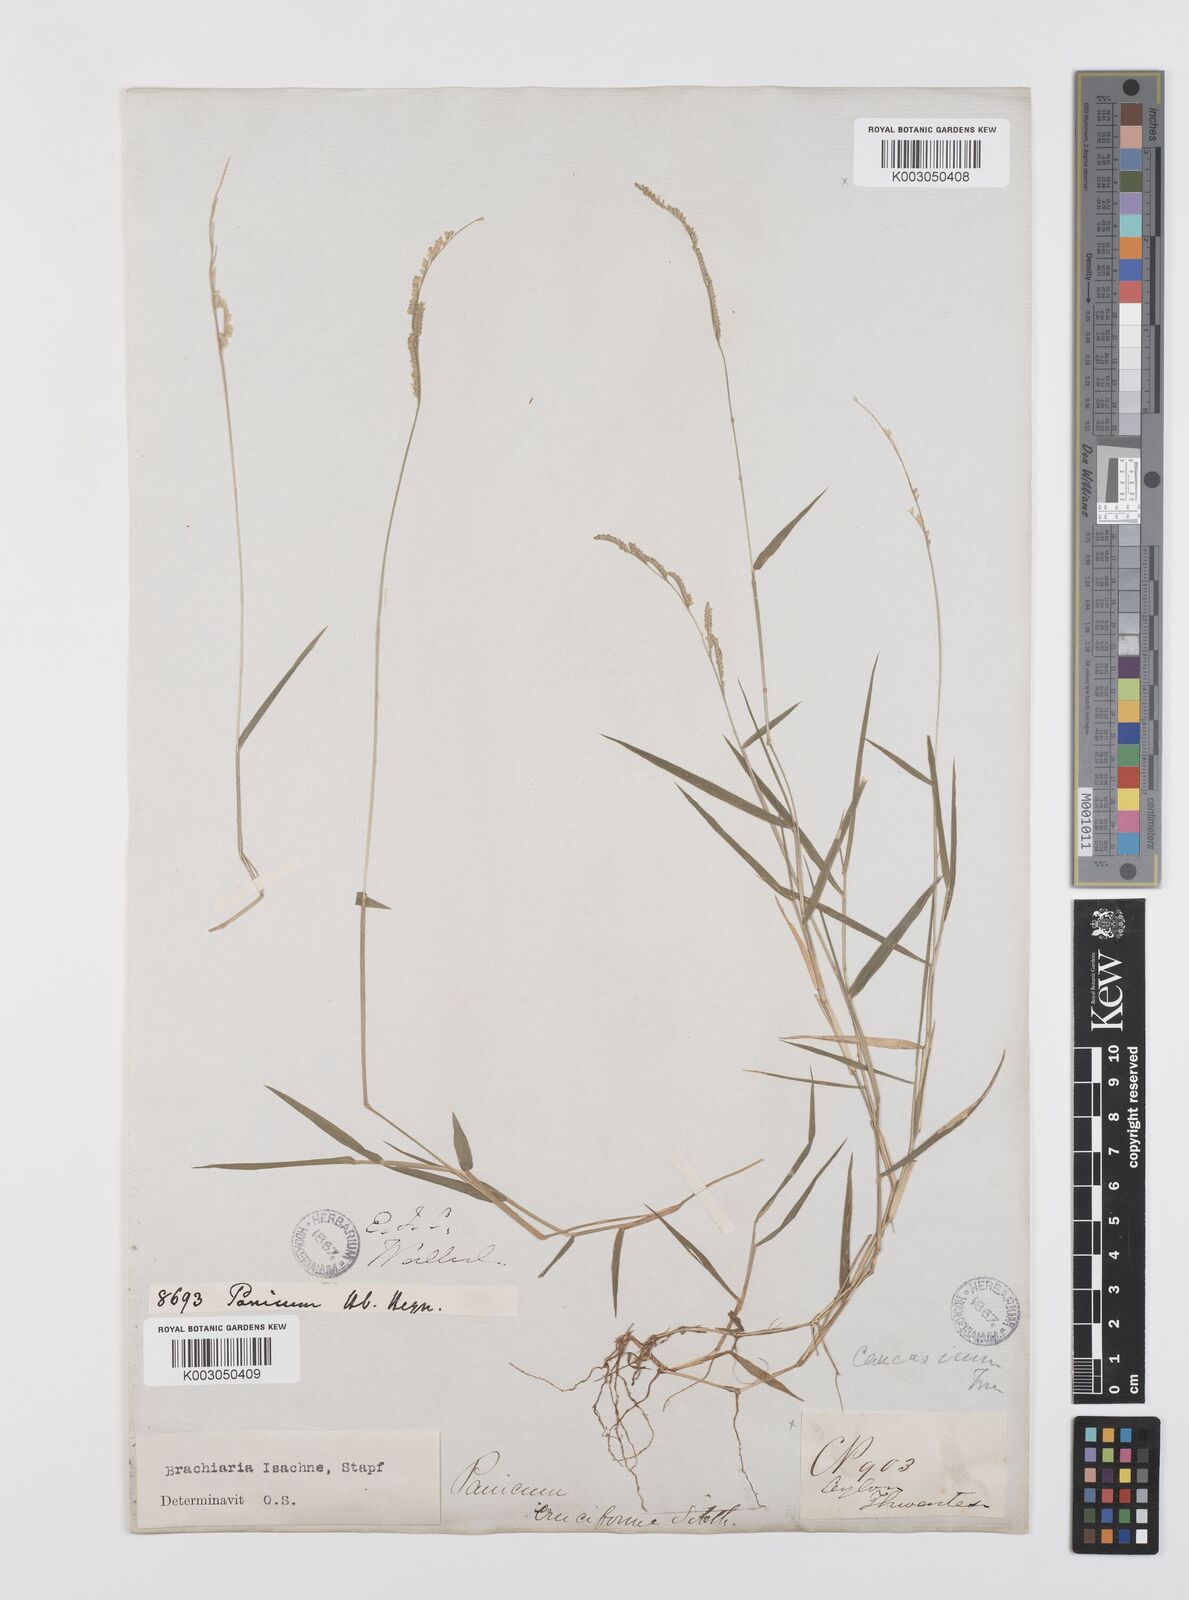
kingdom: Plantae
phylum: Tracheophyta
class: Liliopsida
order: Poales
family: Poaceae
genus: Moorochloa
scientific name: Moorochloa eruciformis
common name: Sweet signalgrass
